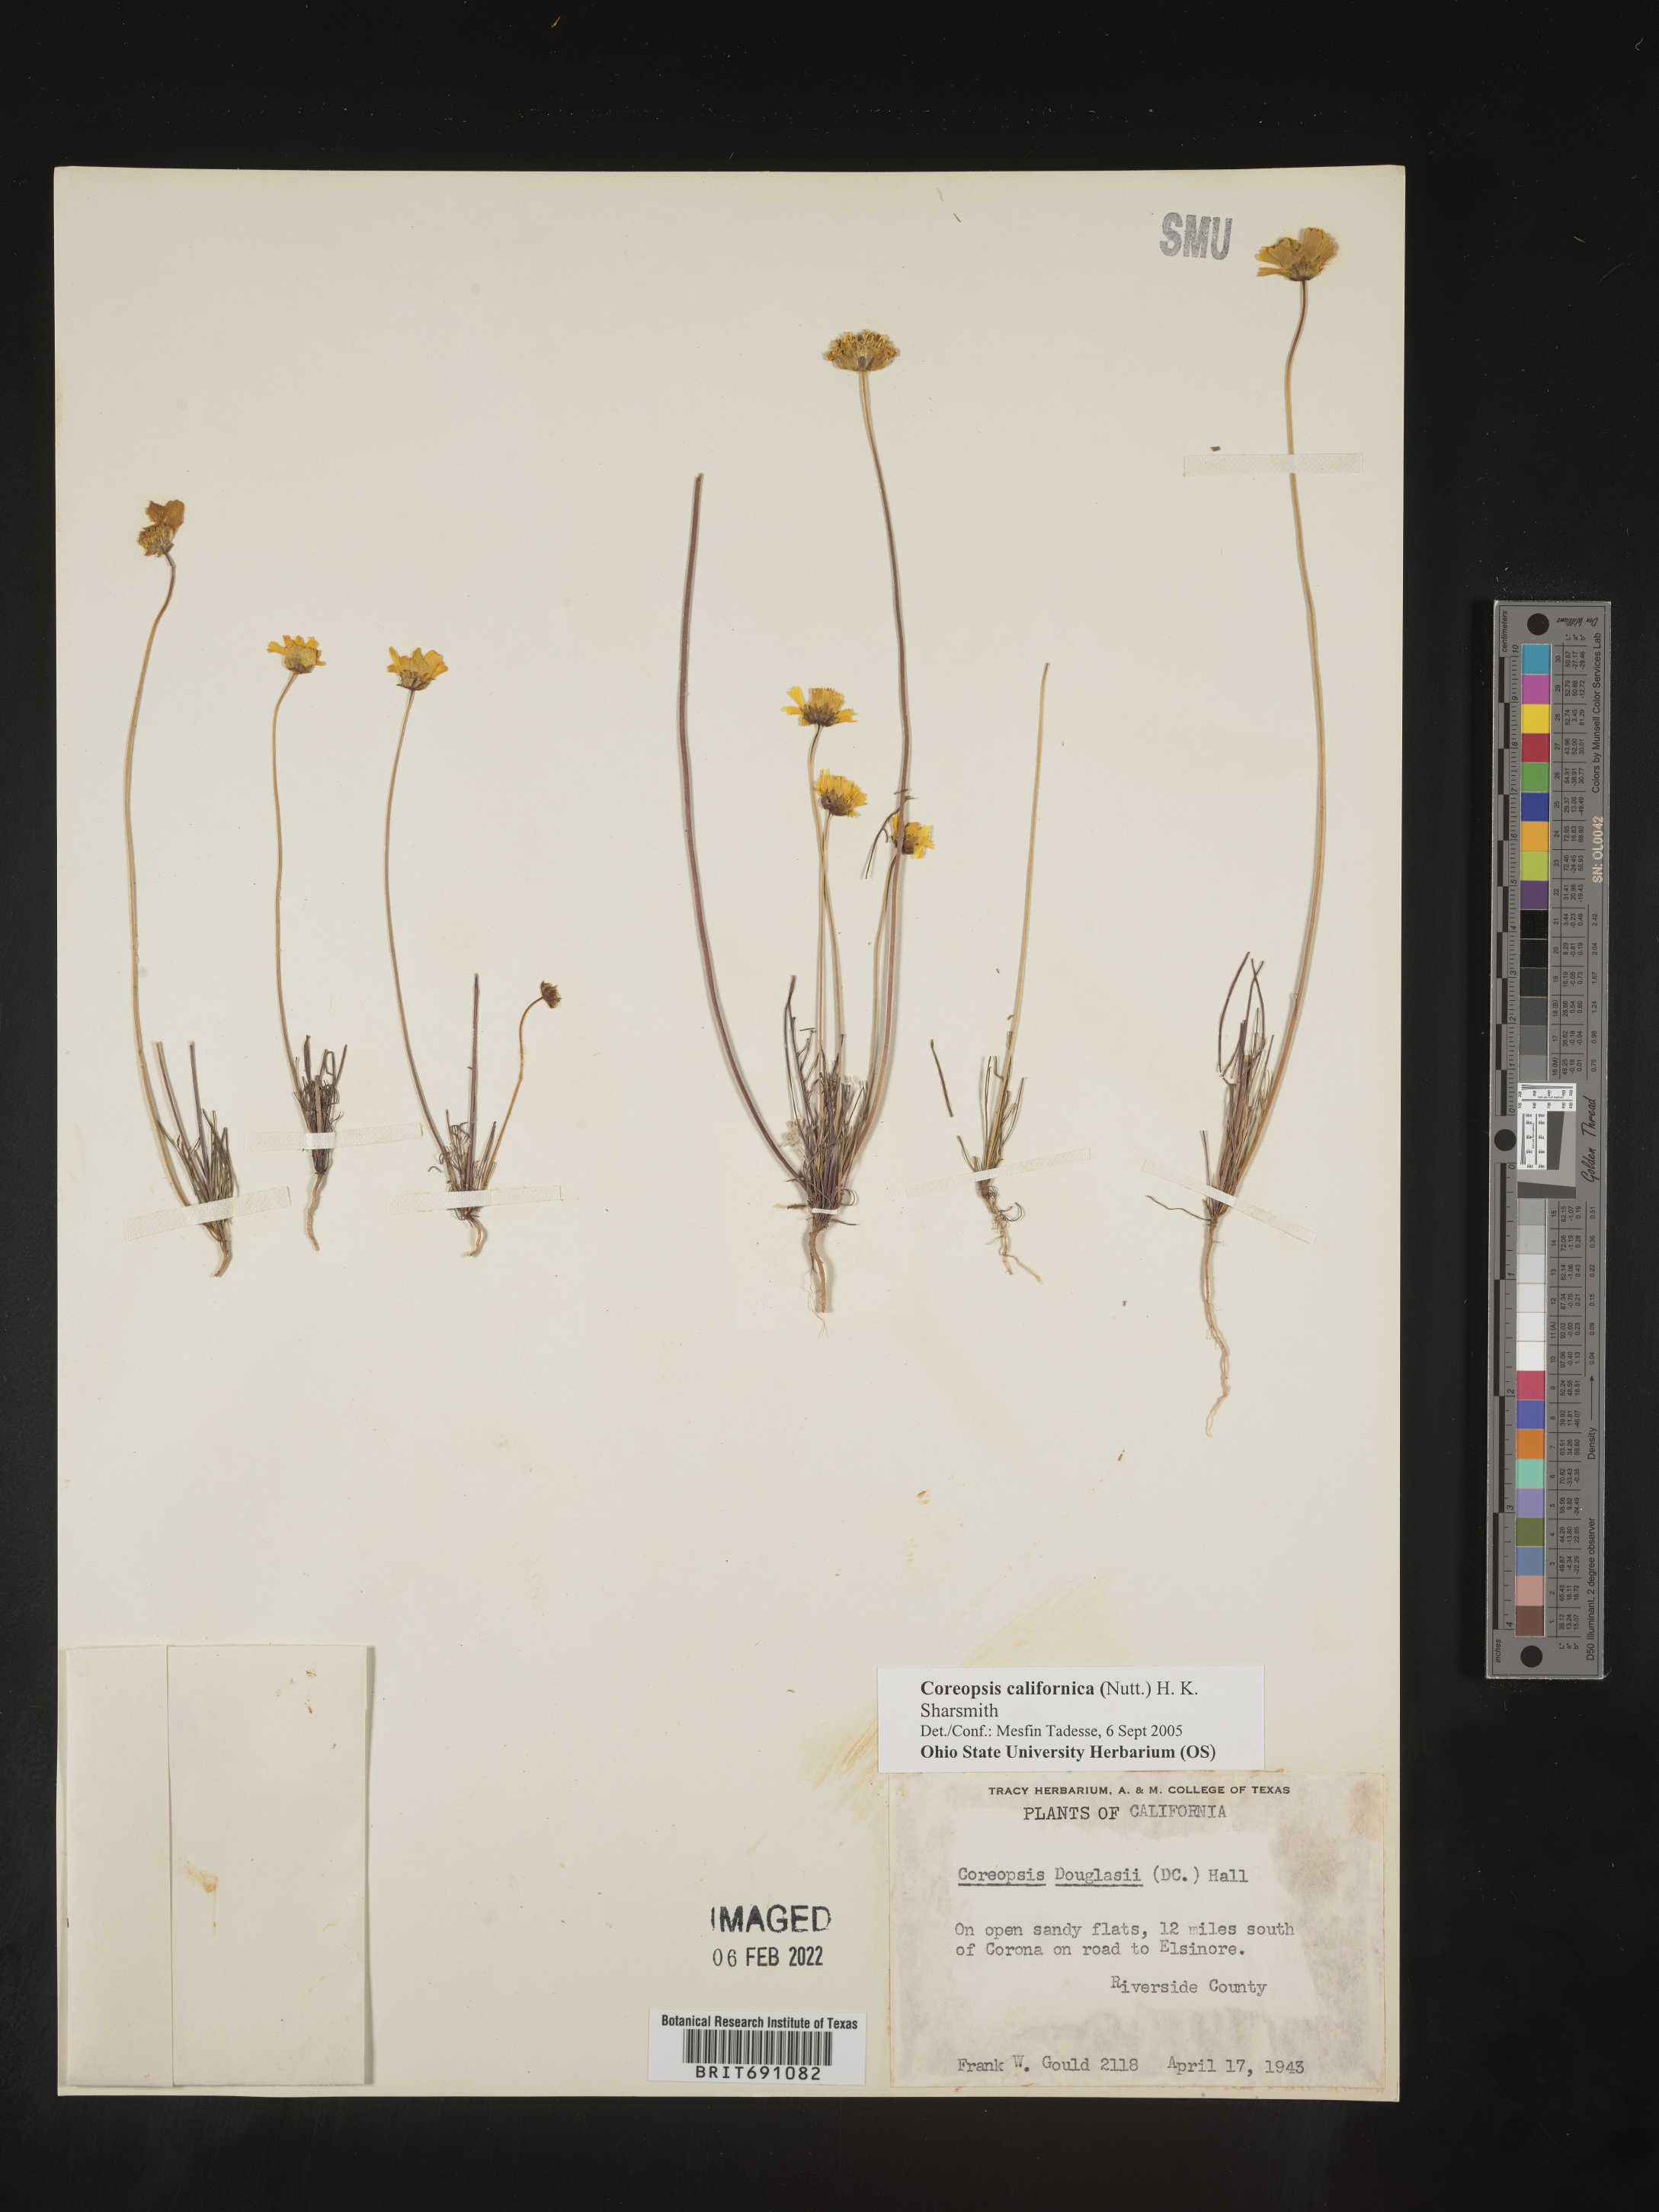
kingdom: Plantae
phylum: Tracheophyta
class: Magnoliopsida
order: Asterales
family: Asteraceae
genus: Coreopsis
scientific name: Coreopsis californica
